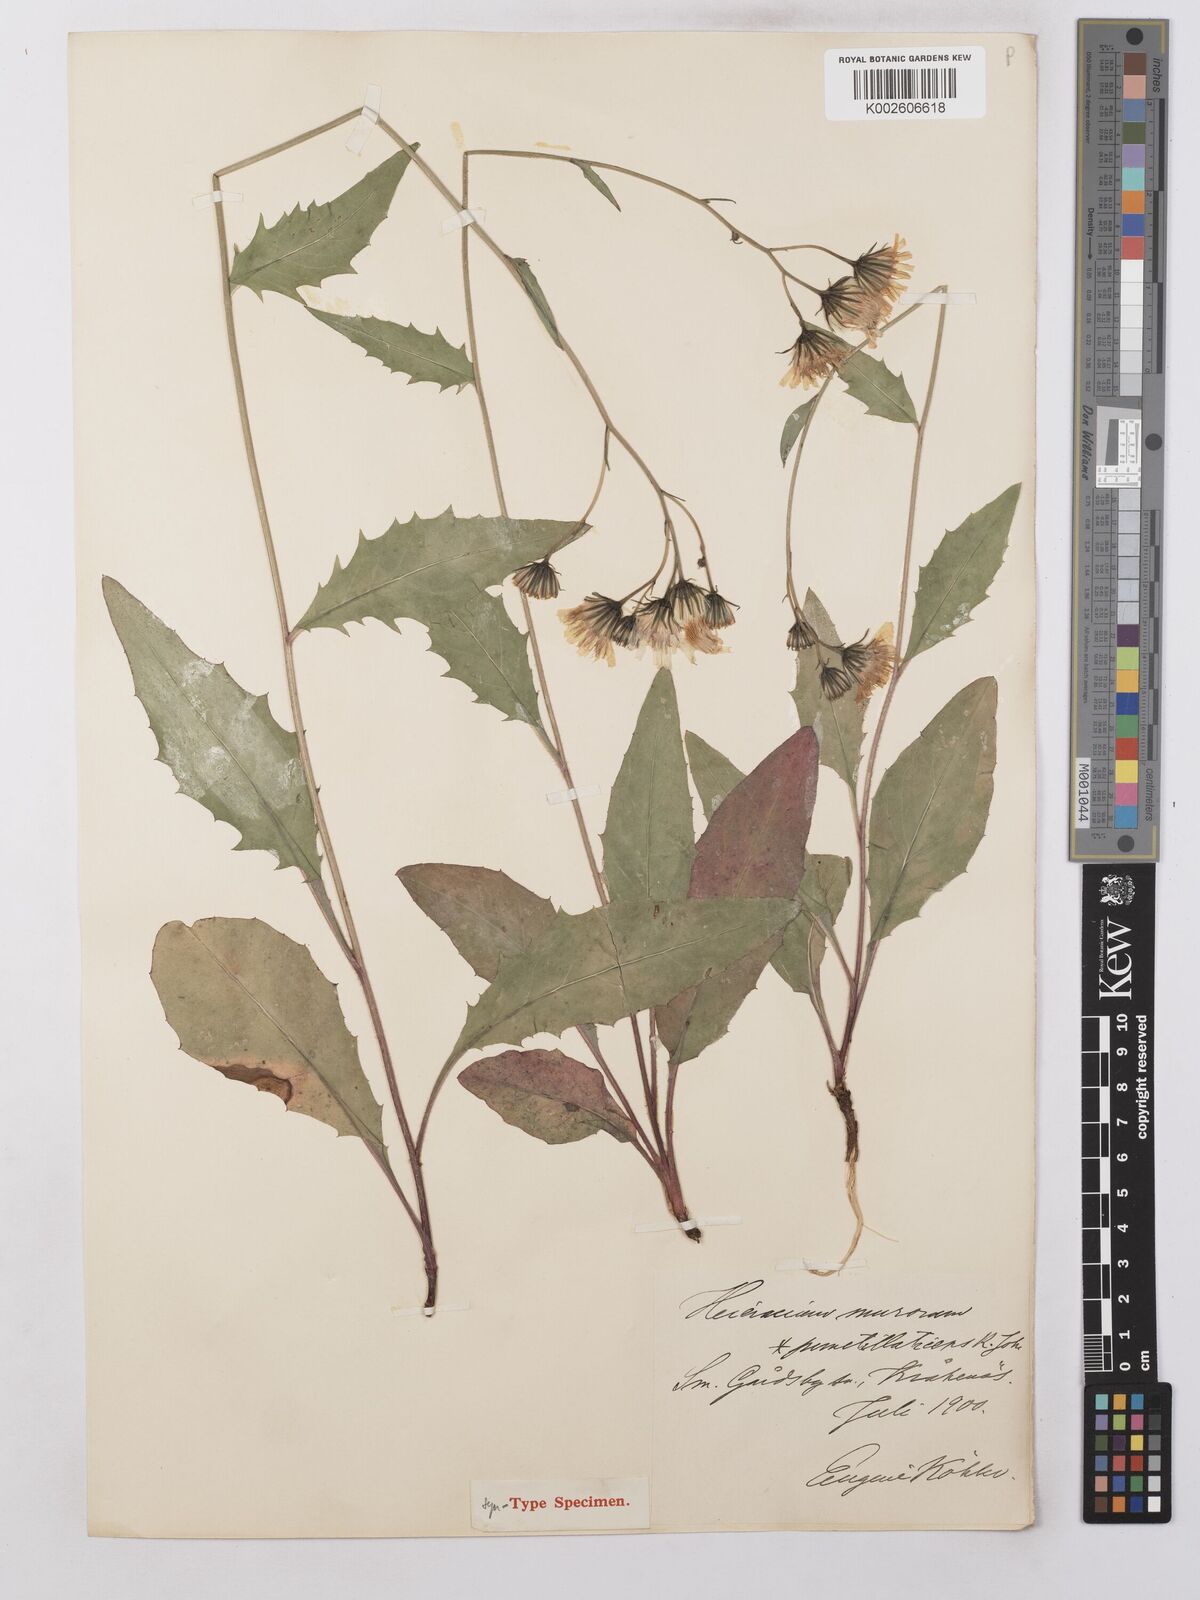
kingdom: Plantae
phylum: Tracheophyta
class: Magnoliopsida
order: Asterales
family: Asteraceae
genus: Hieracium
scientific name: Hieracium lachenalii
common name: Common hawkweed
